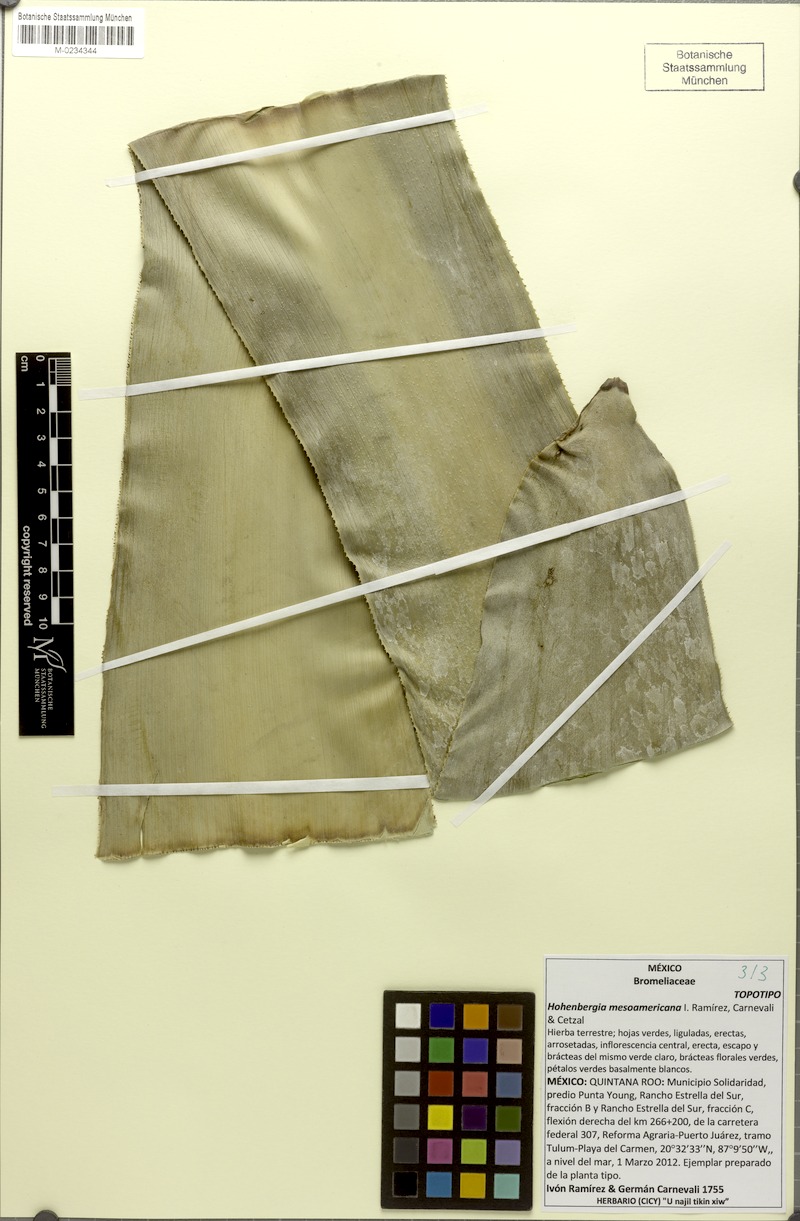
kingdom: Plantae
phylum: Tracheophyta
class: Liliopsida
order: Poales
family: Bromeliaceae
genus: Wittmackia
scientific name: Wittmackia mesoamericana
